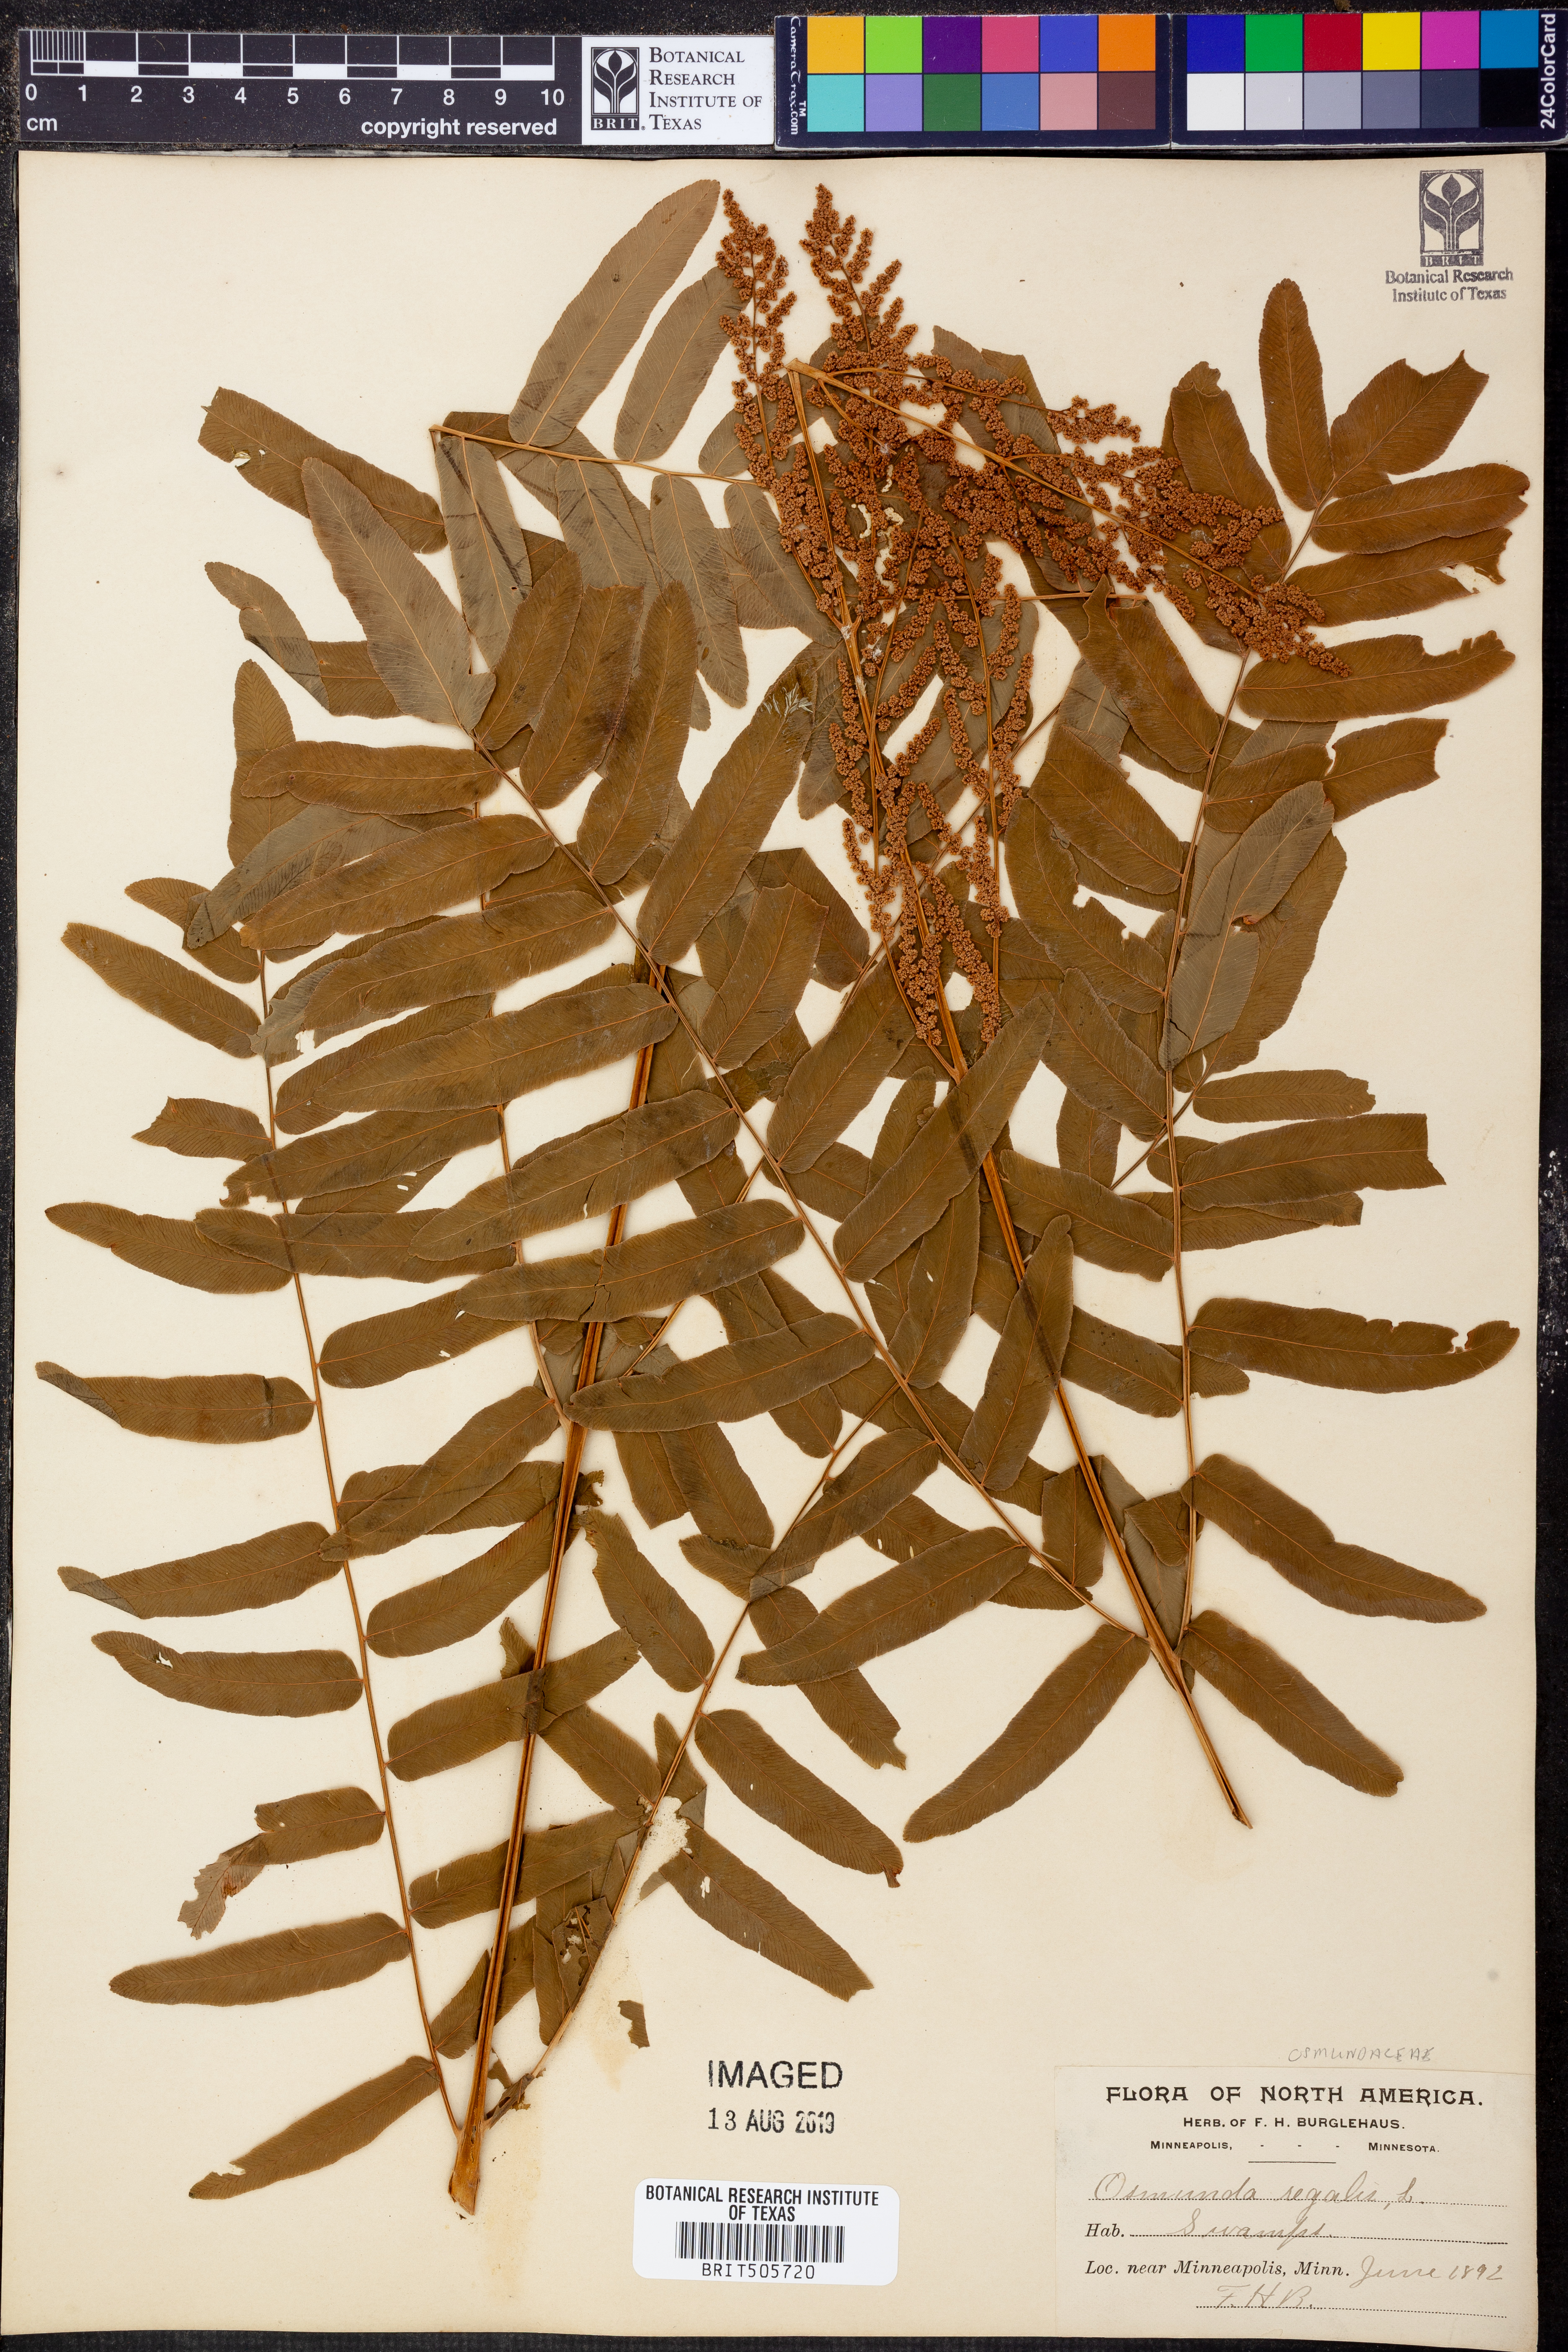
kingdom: Plantae
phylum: Tracheophyta
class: Polypodiopsida
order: Osmundales
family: Osmundaceae
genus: Osmunda
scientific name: Osmunda regalis
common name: Royal fern
